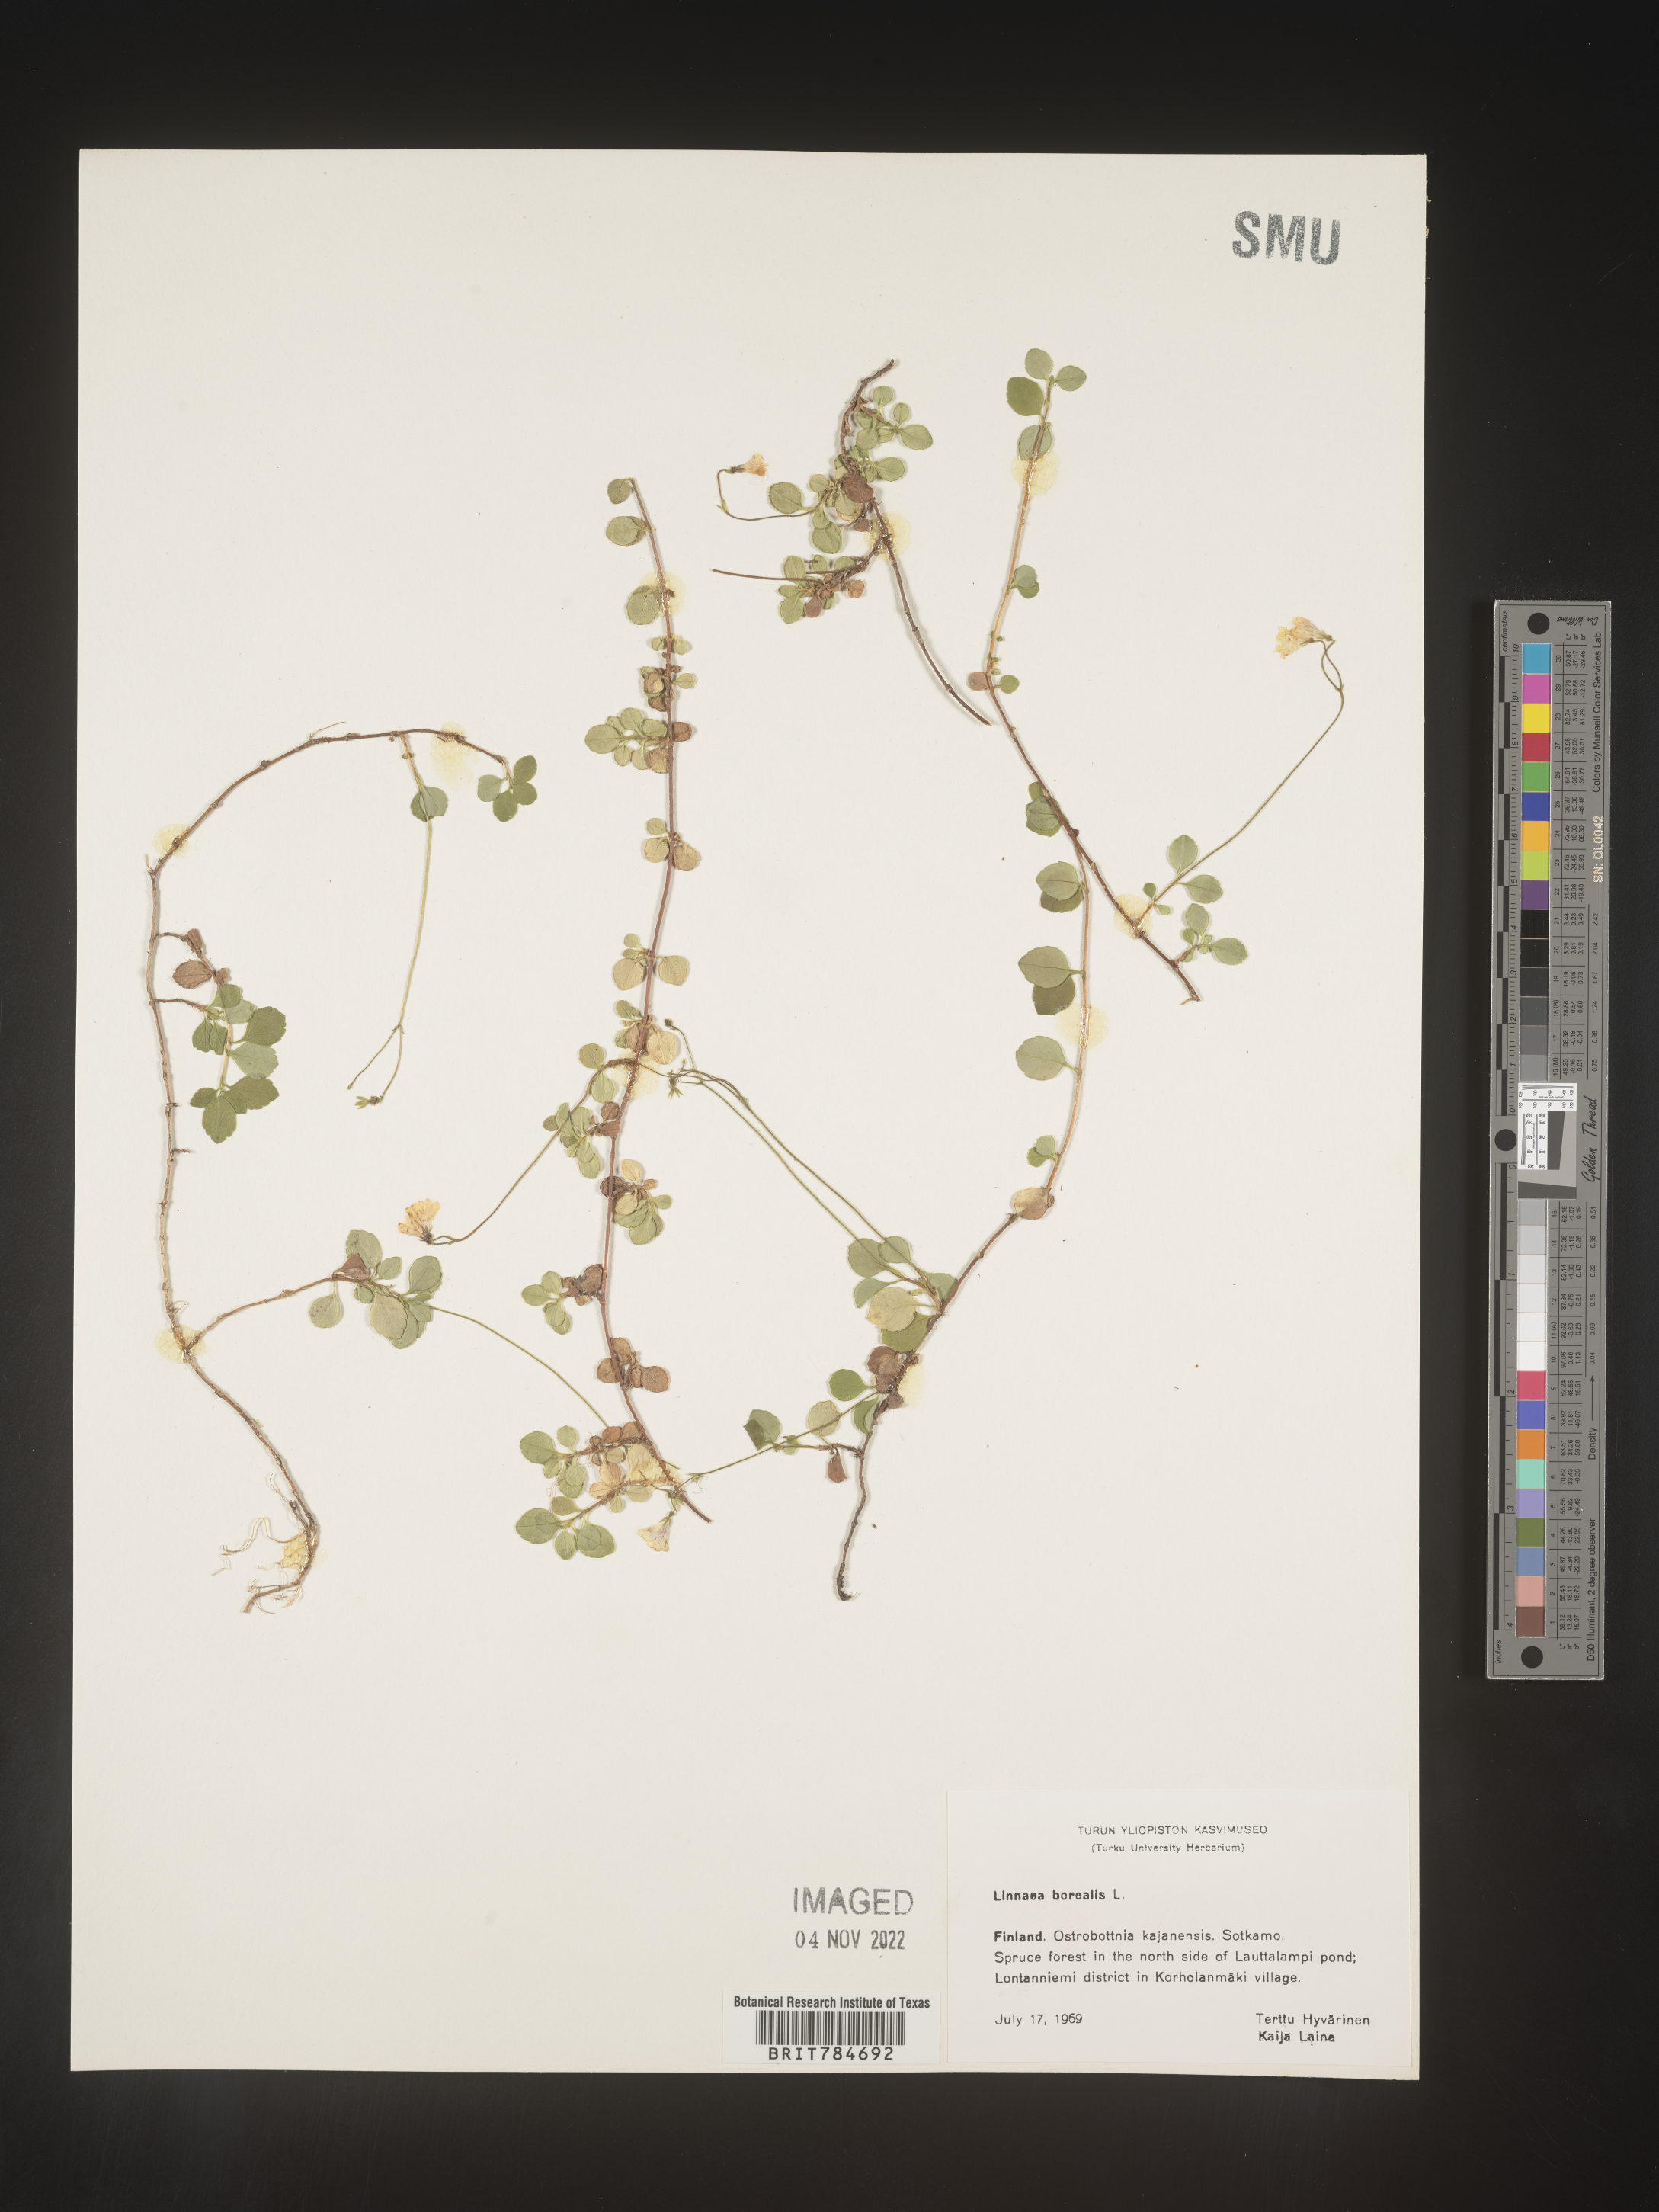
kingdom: Plantae
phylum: Tracheophyta
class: Magnoliopsida
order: Dipsacales
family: Caprifoliaceae
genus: Linnaea
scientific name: Linnaea
